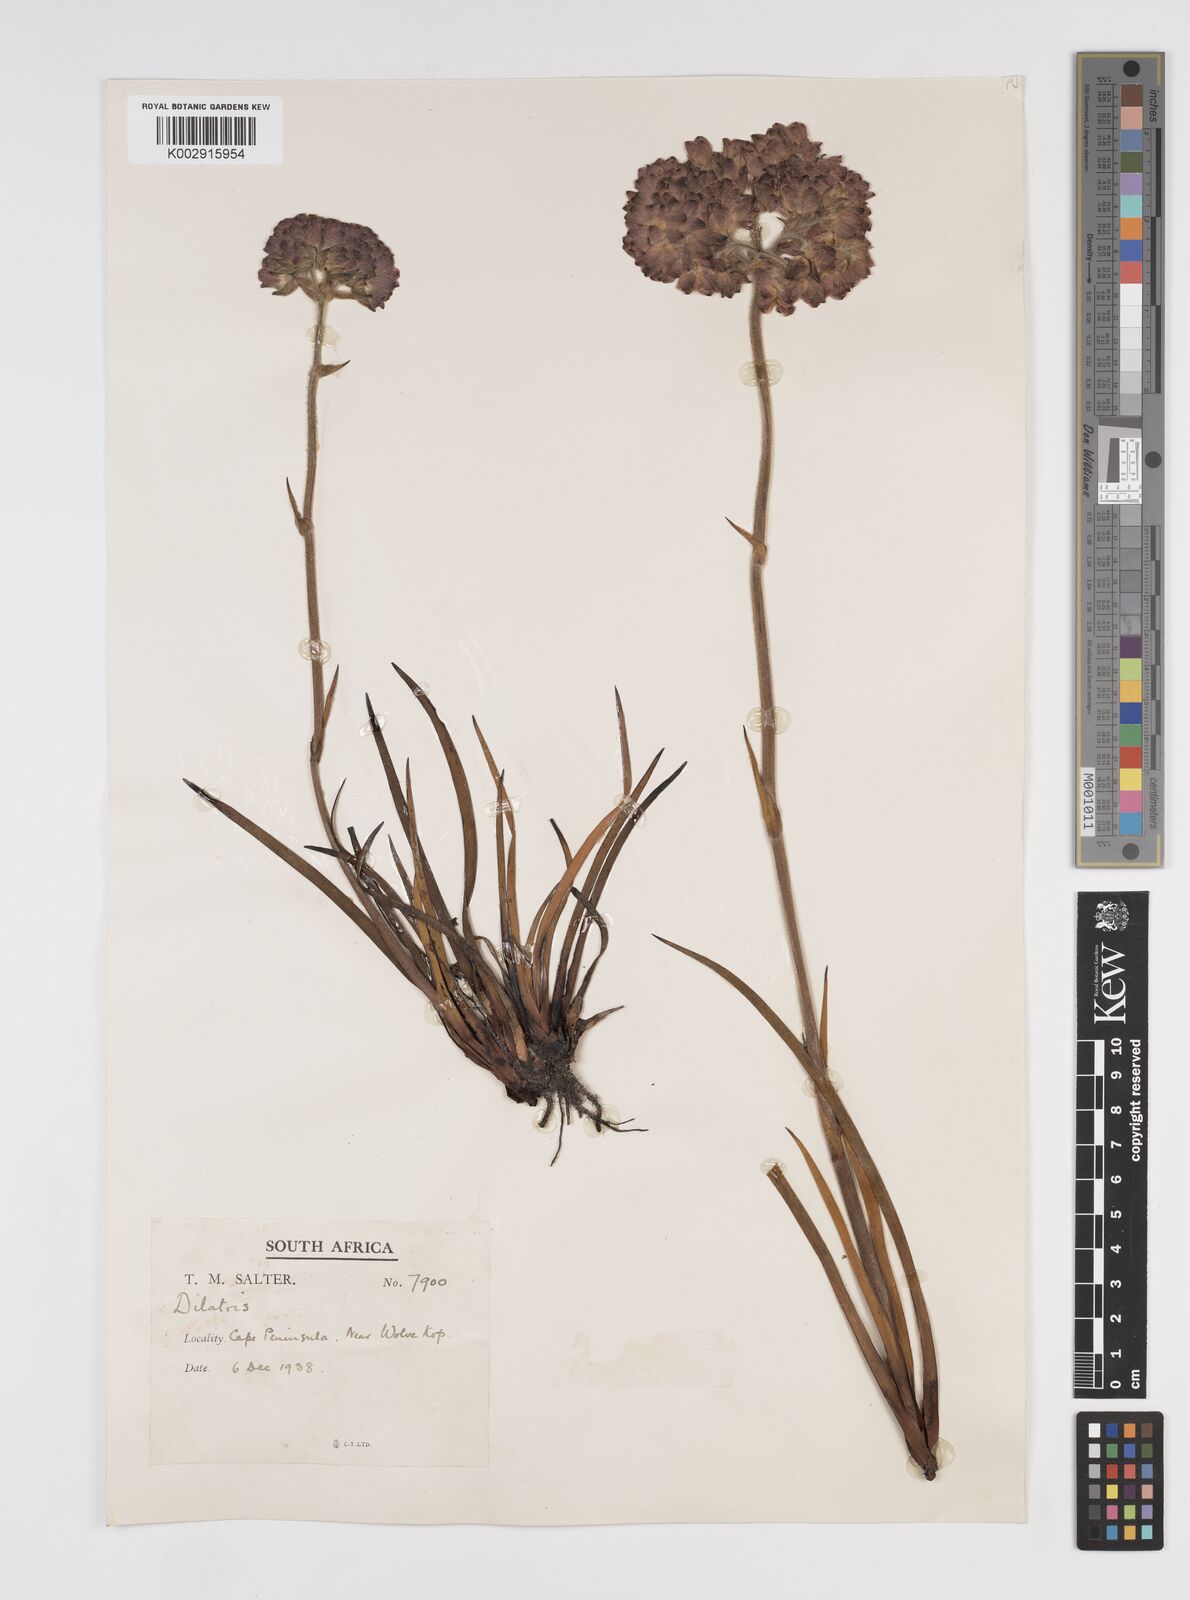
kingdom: Plantae
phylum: Tracheophyta
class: Liliopsida
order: Commelinales
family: Haemodoraceae
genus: Dilatris
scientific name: Dilatris pillansii
